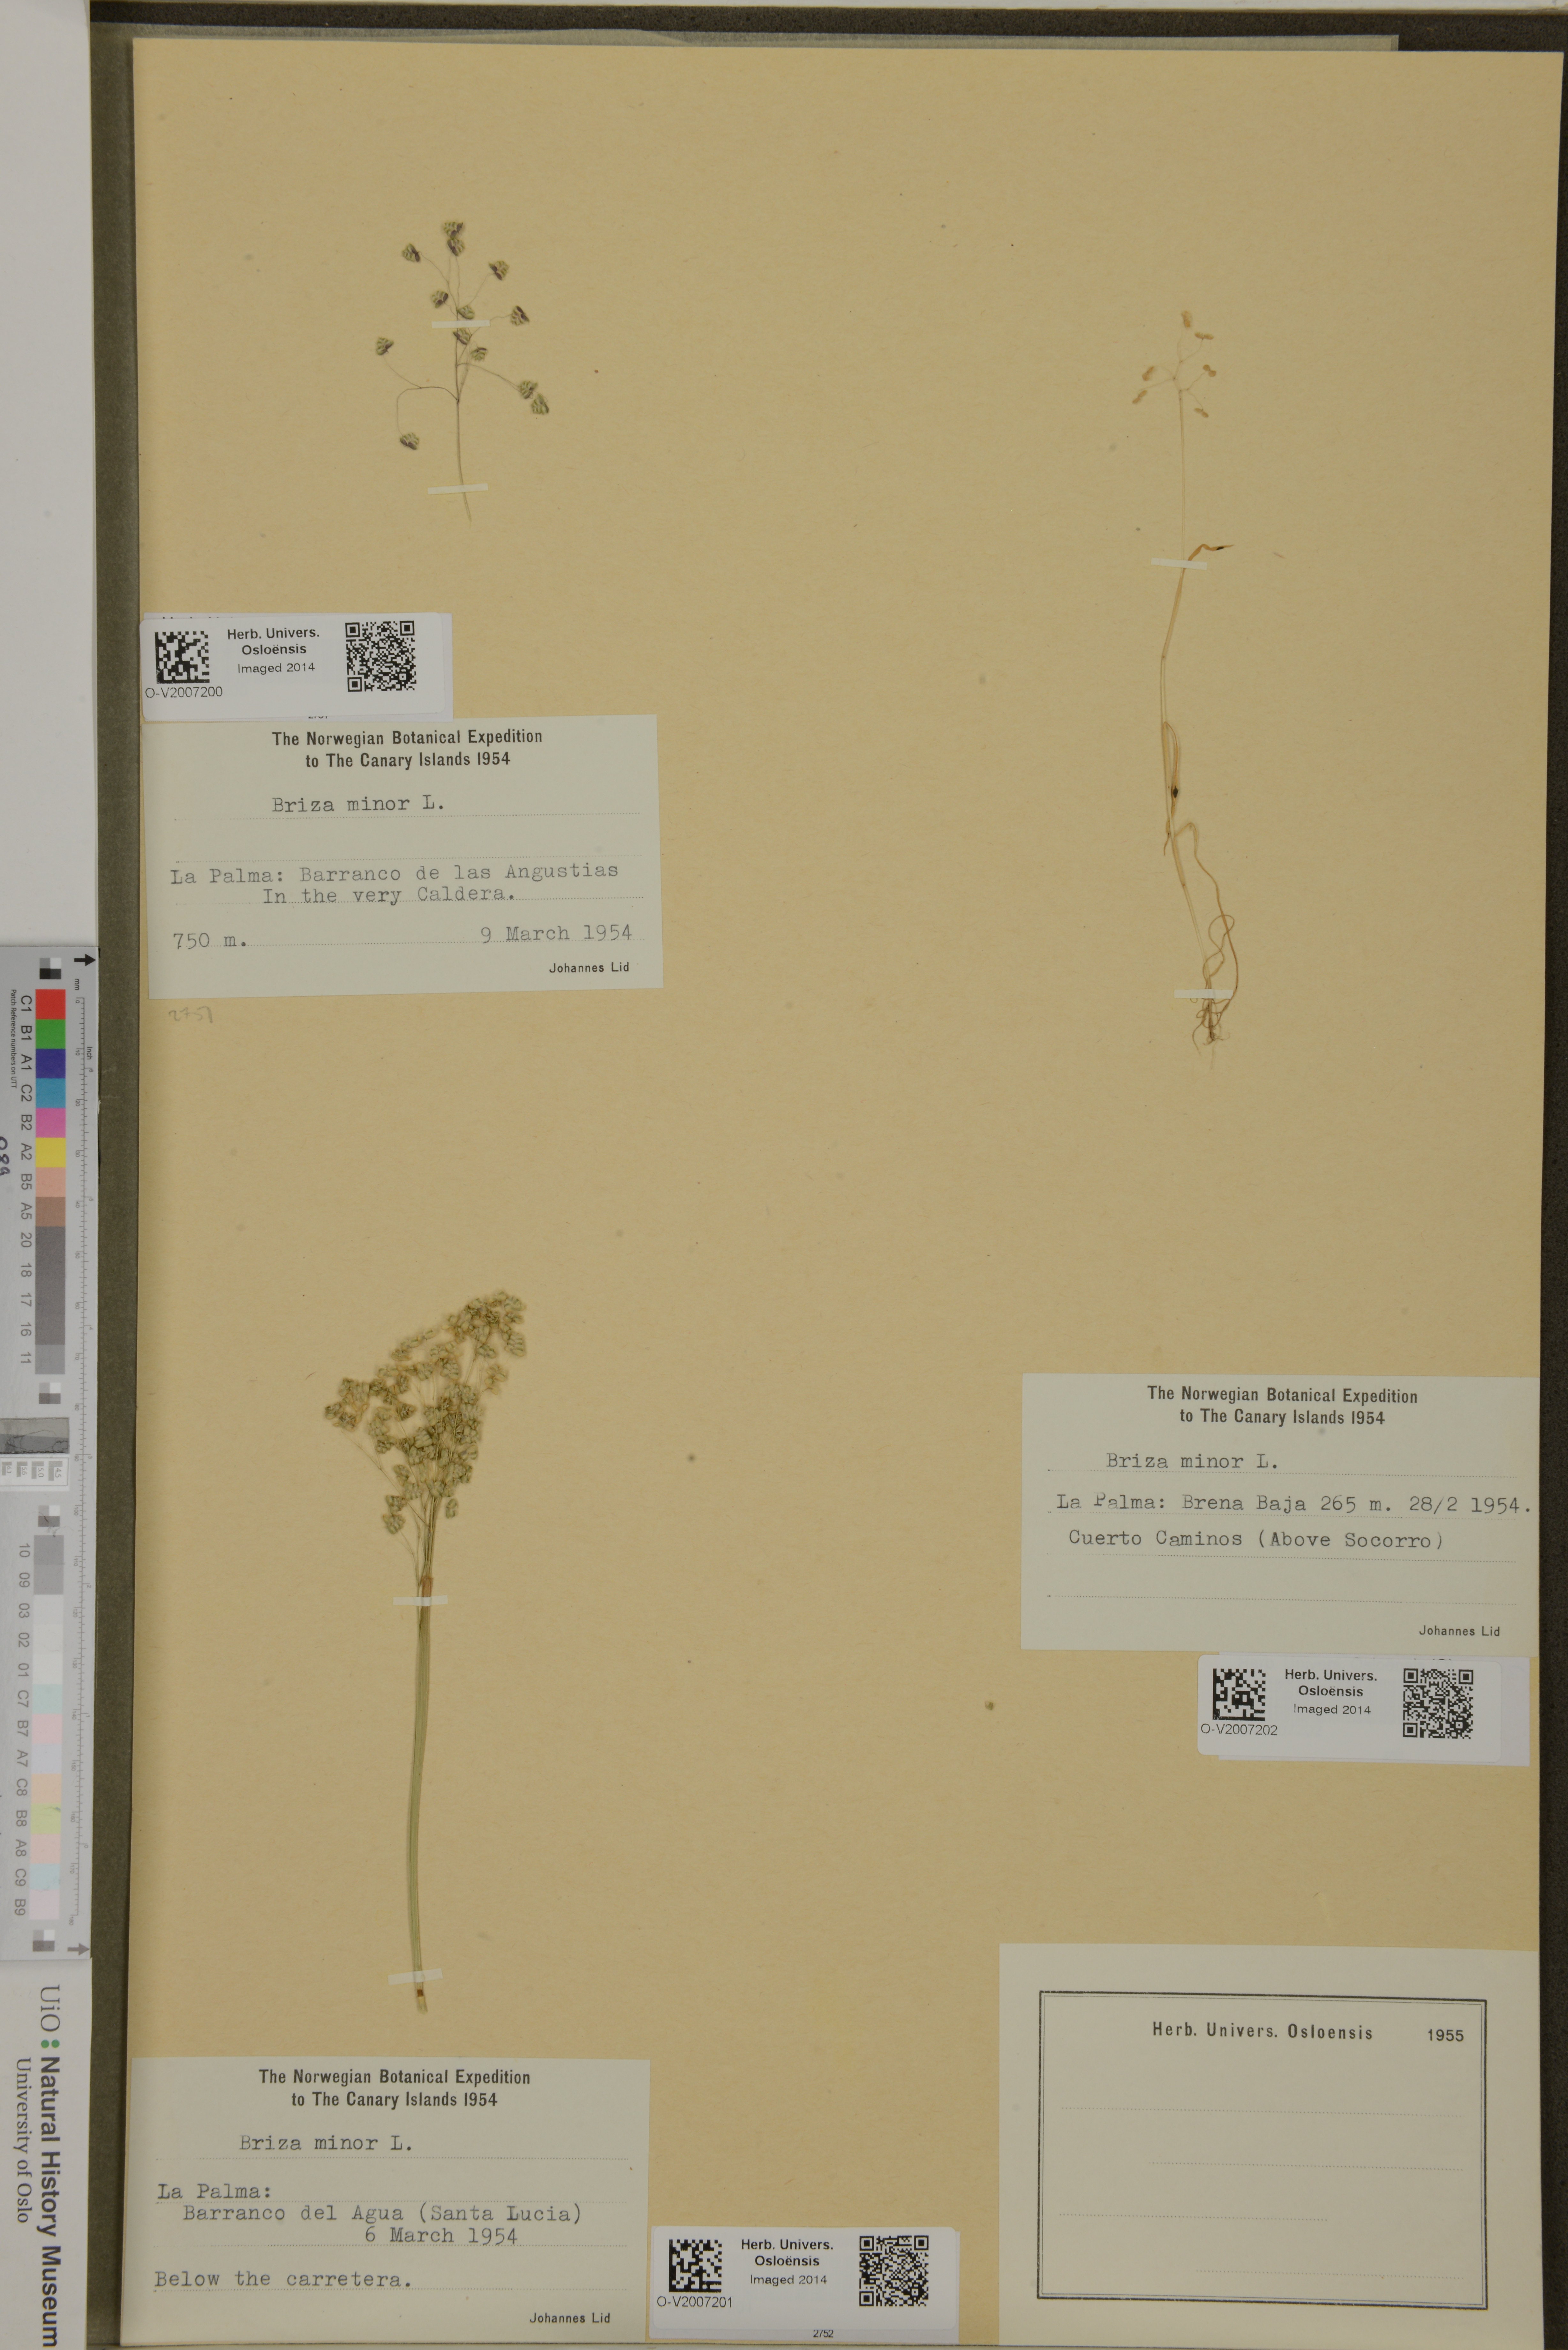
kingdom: Plantae
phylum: Tracheophyta
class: Liliopsida
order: Poales
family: Poaceae
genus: Briza
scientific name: Briza minor
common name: Lesser quaking-grass
